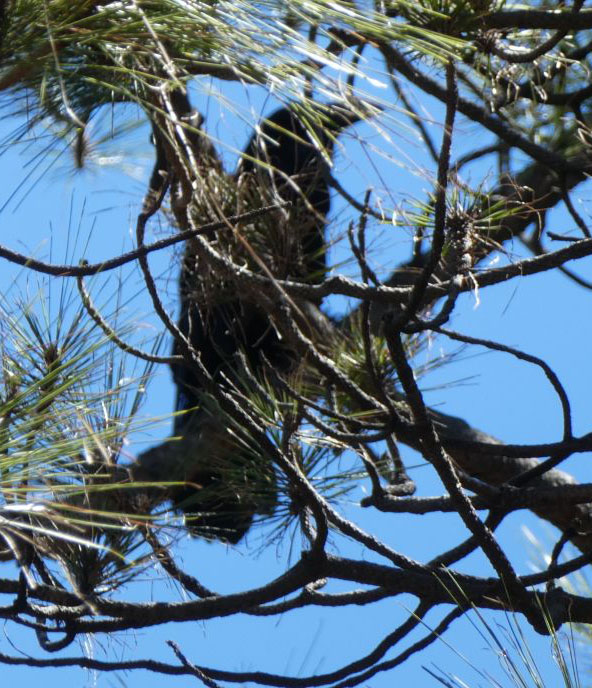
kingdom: Animalia
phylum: Chordata
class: Aves
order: Passeriformes
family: Corvidae
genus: Corvus
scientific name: Corvus corax
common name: Common raven
